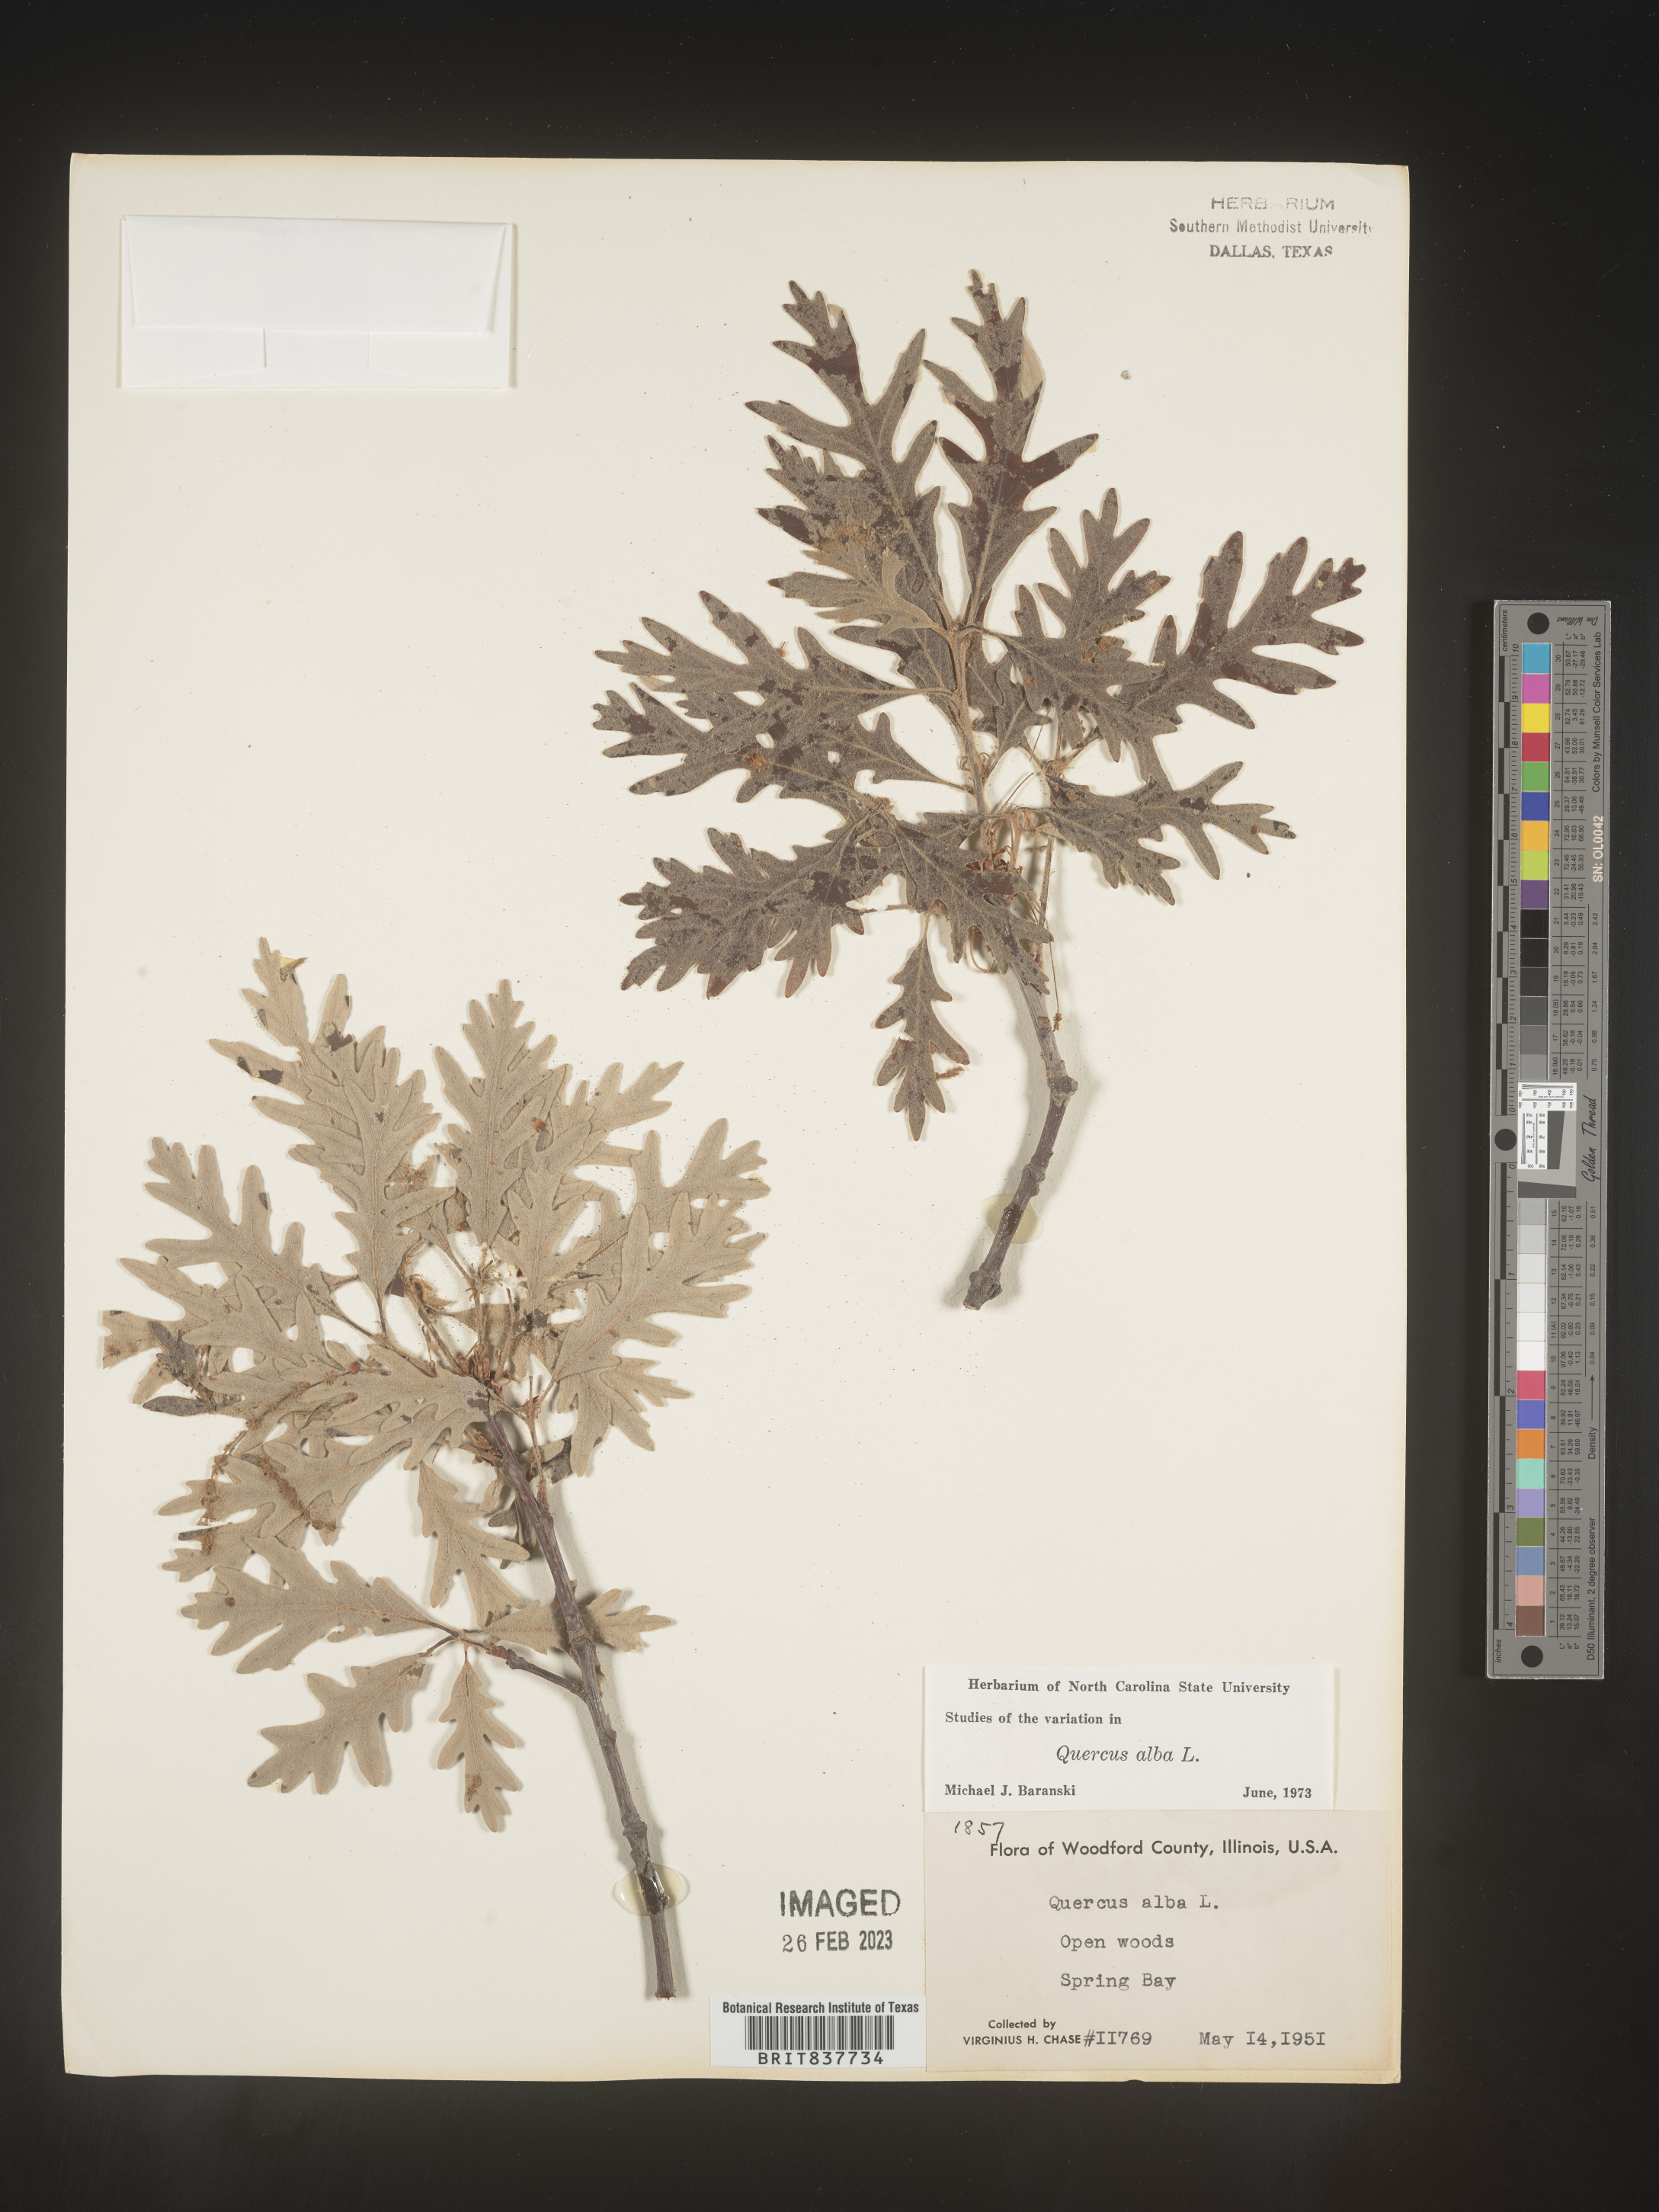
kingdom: Plantae
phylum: Tracheophyta
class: Magnoliopsida
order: Fagales
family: Fagaceae
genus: Quercus
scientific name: Quercus alba
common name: White oak
